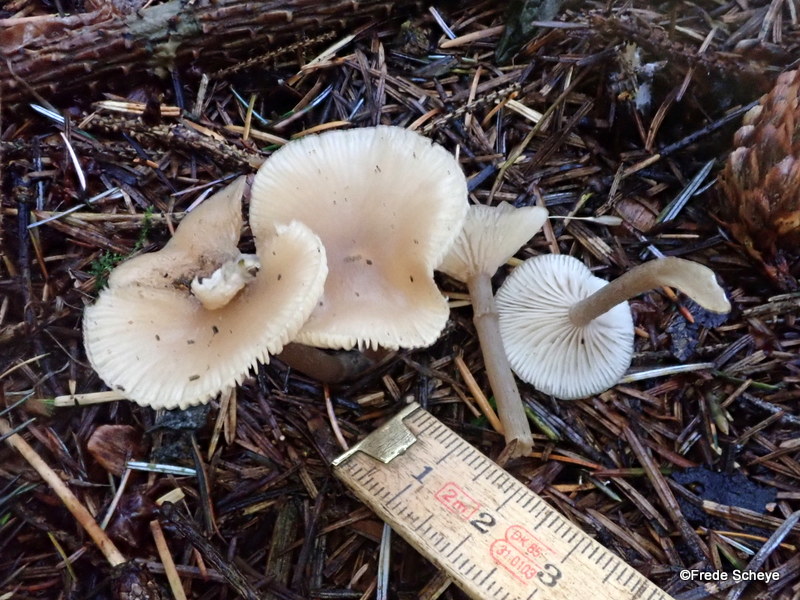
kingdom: Fungi
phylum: Basidiomycota
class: Agaricomycetes
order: Agaricales
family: Tricholomataceae
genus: Clitocybe
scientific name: Clitocybe fragrans
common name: vellugtende tragthat
